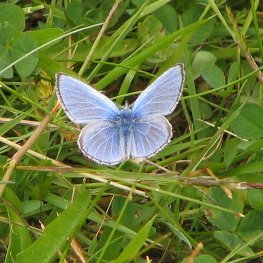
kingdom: Animalia
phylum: Arthropoda
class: Insecta
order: Lepidoptera
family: Lycaenidae
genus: Glaucopsyche
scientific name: Glaucopsyche lygdamus
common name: Silvery Blue
